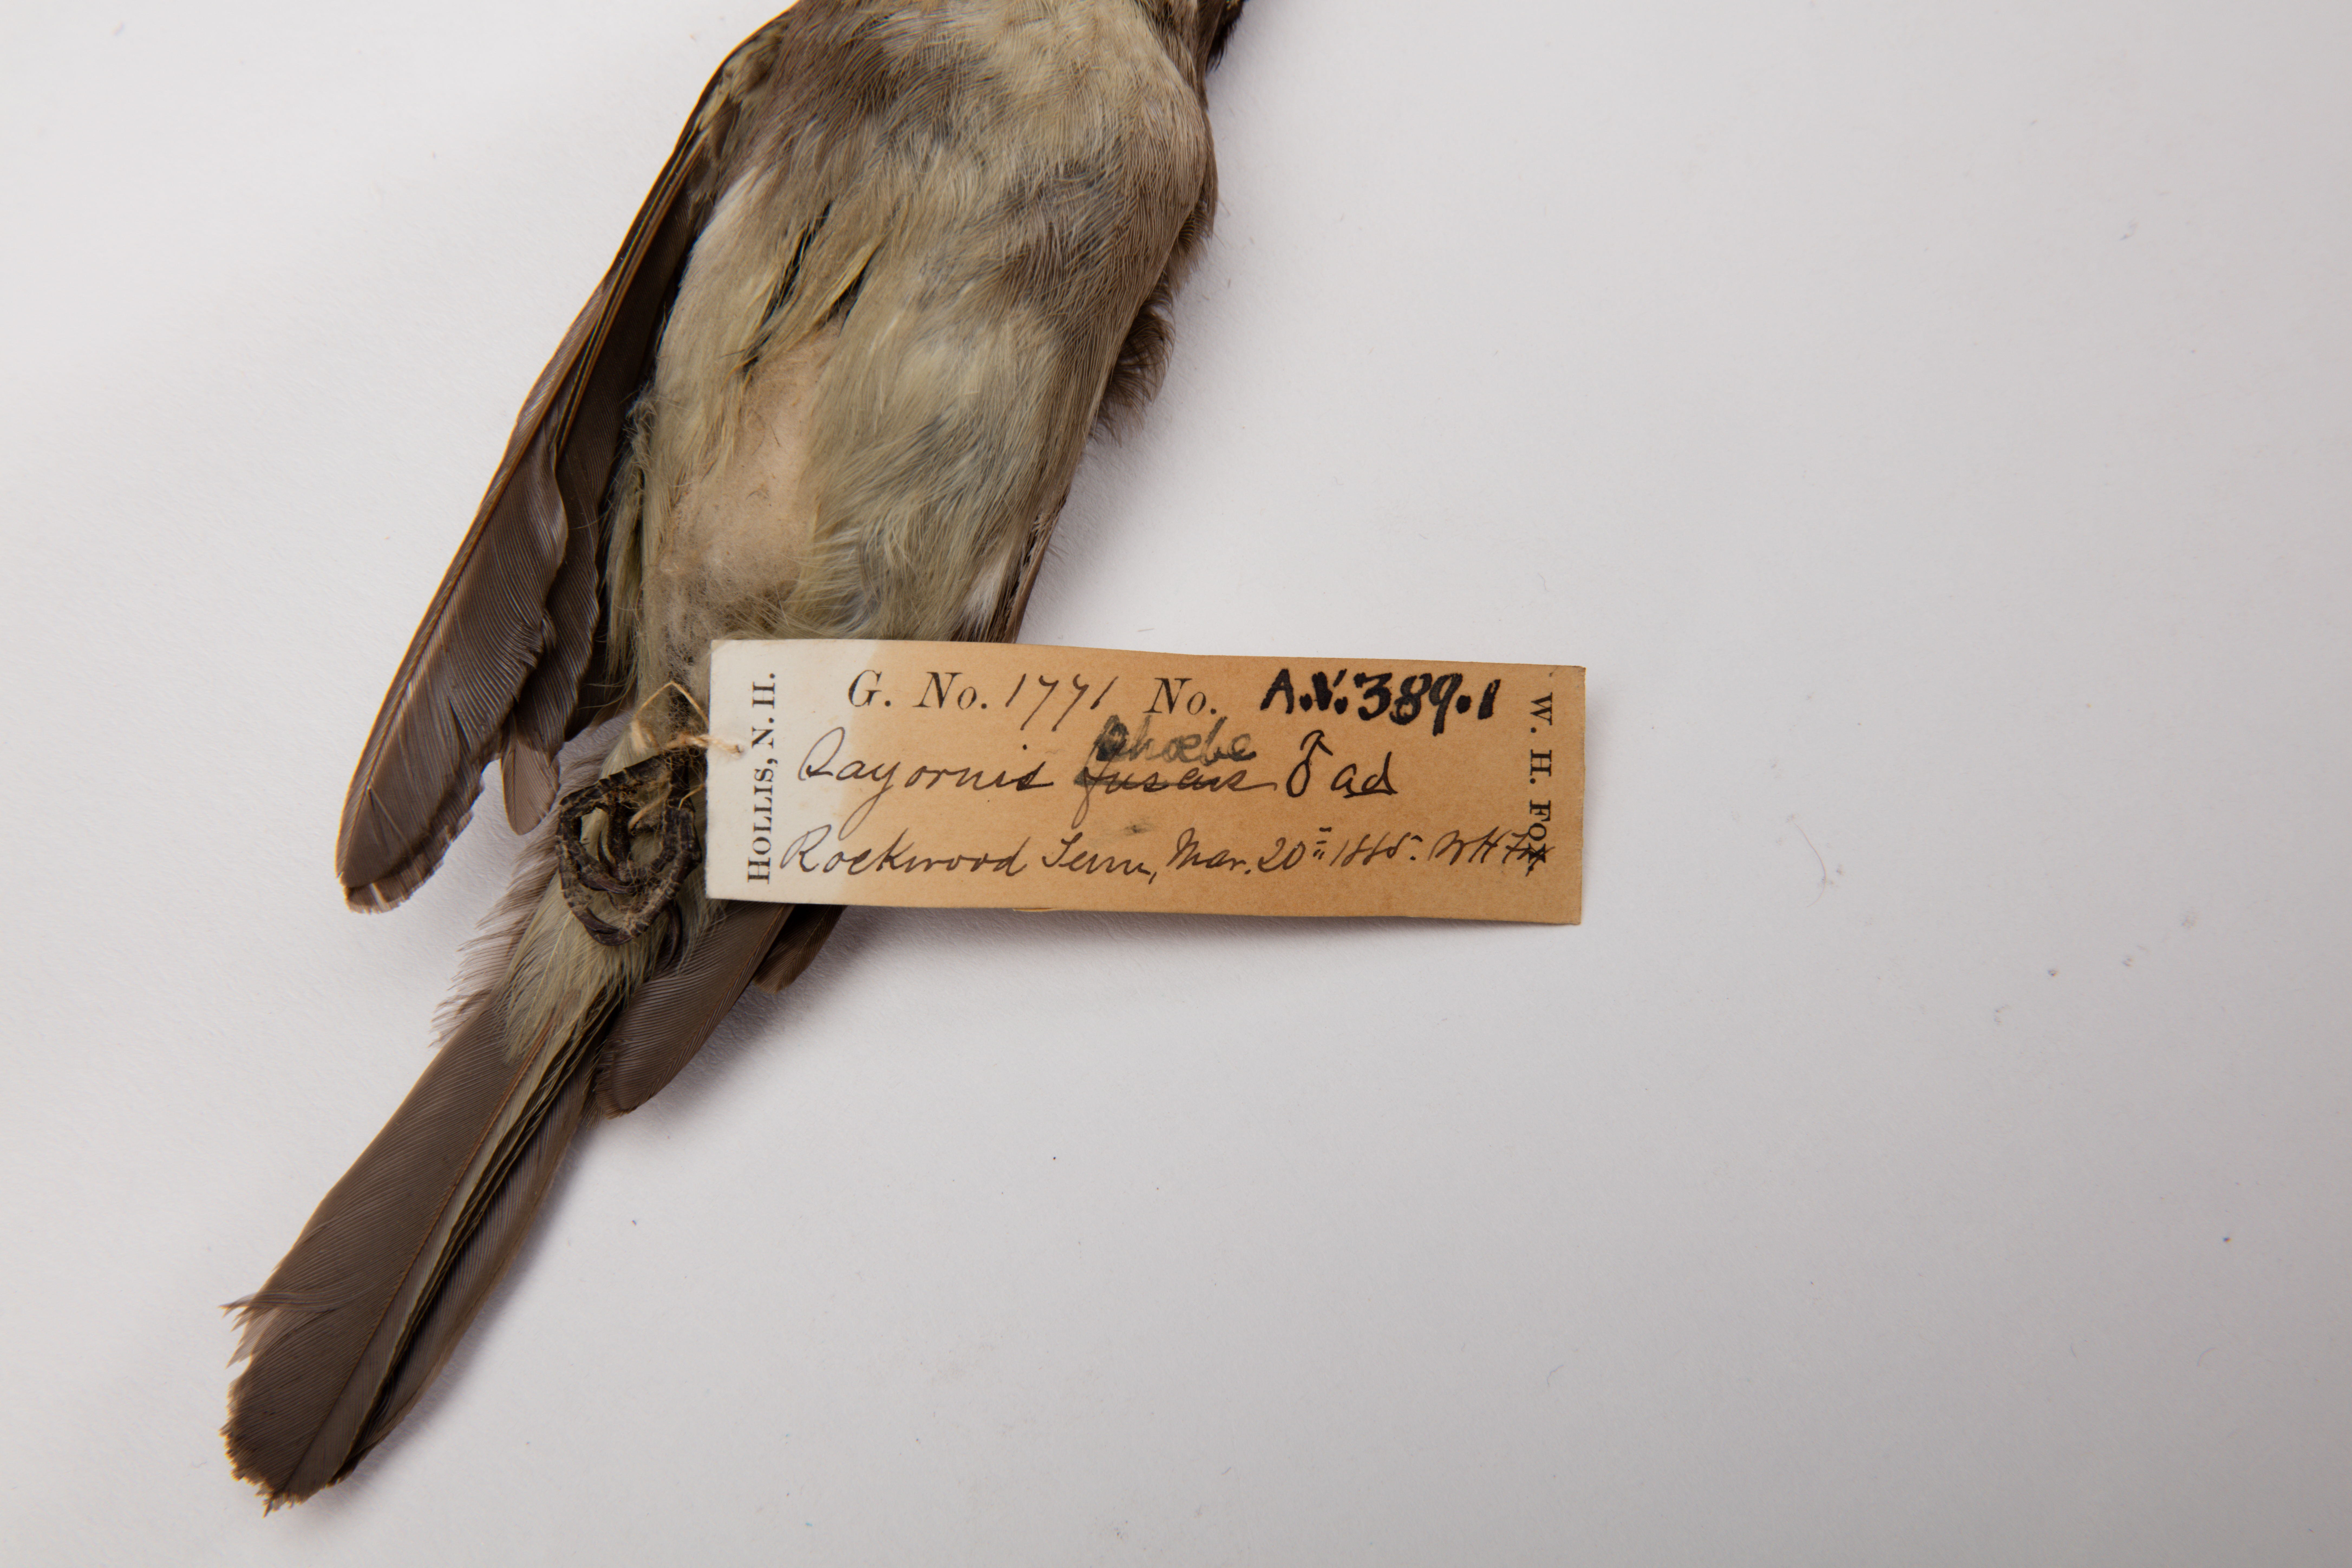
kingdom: Animalia
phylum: Chordata
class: Aves
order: Passeriformes
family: Tyrannidae
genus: Sayornis
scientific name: Sayornis phoebe
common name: Eastern phoebe
